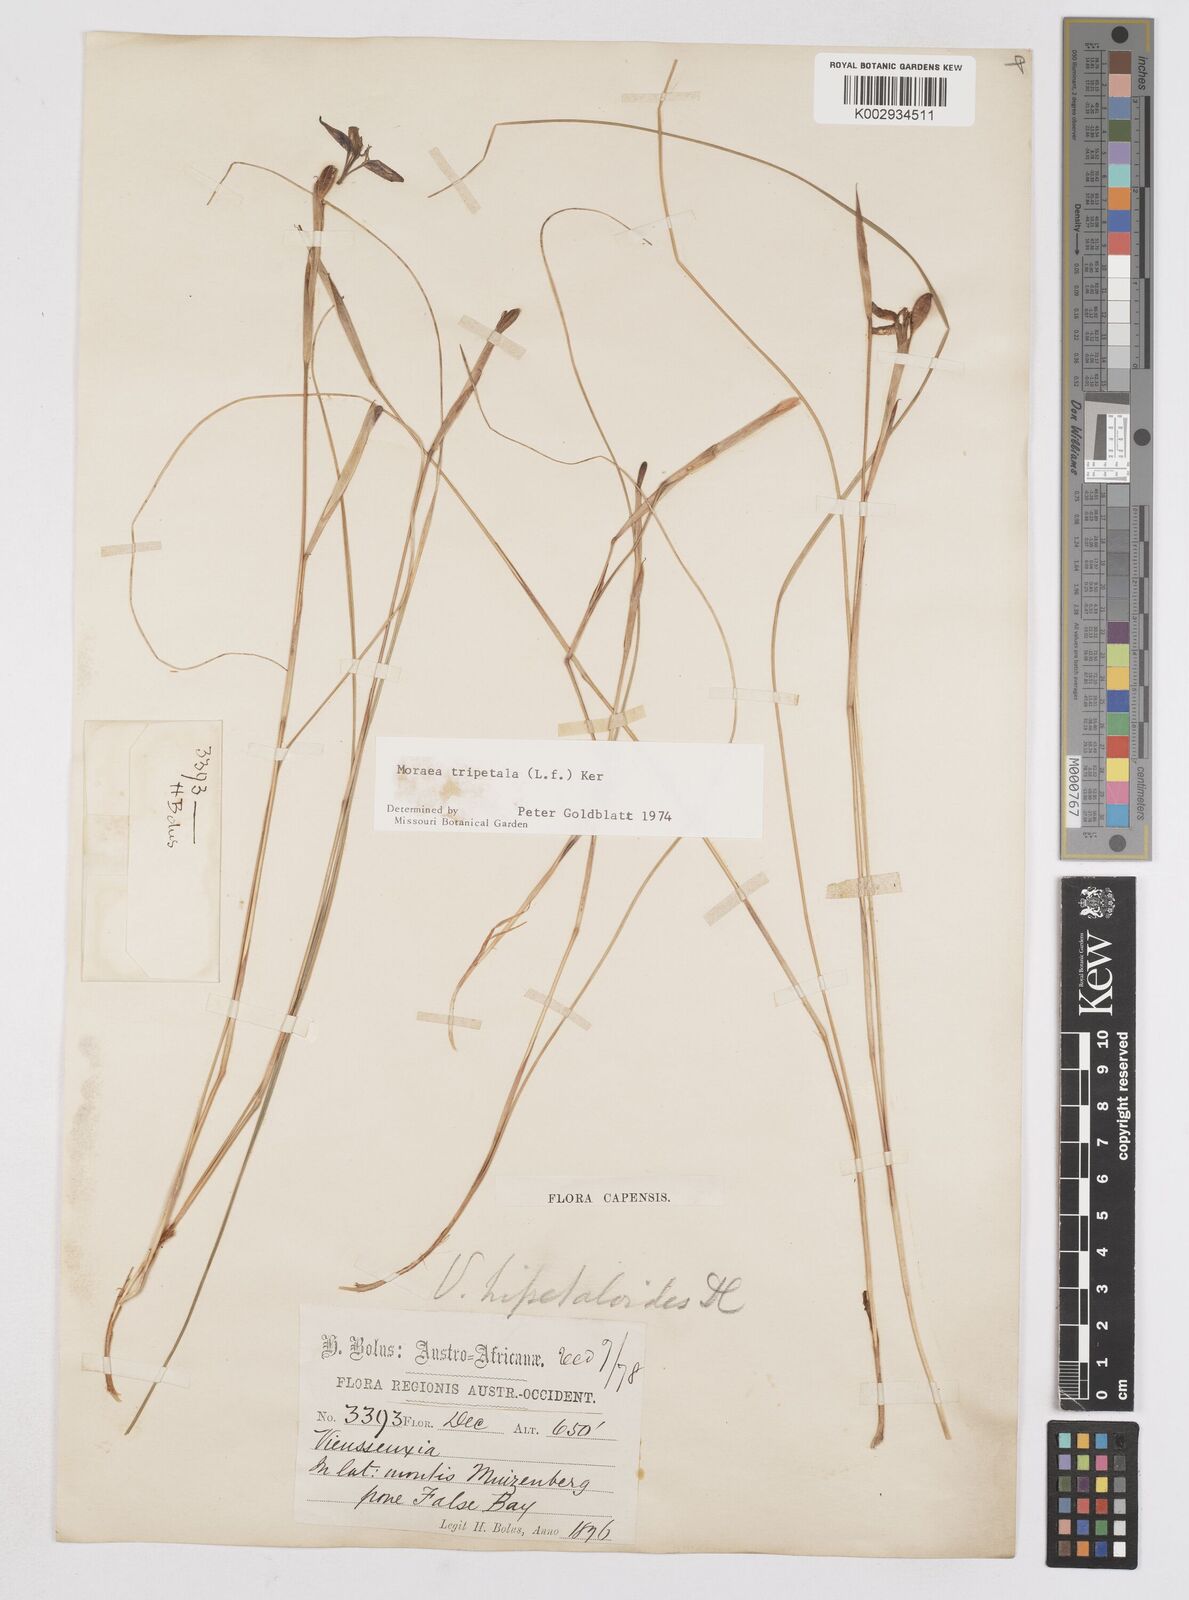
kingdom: Plantae
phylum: Tracheophyta
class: Liliopsida
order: Asparagales
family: Iridaceae
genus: Moraea
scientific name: Moraea tripetala
